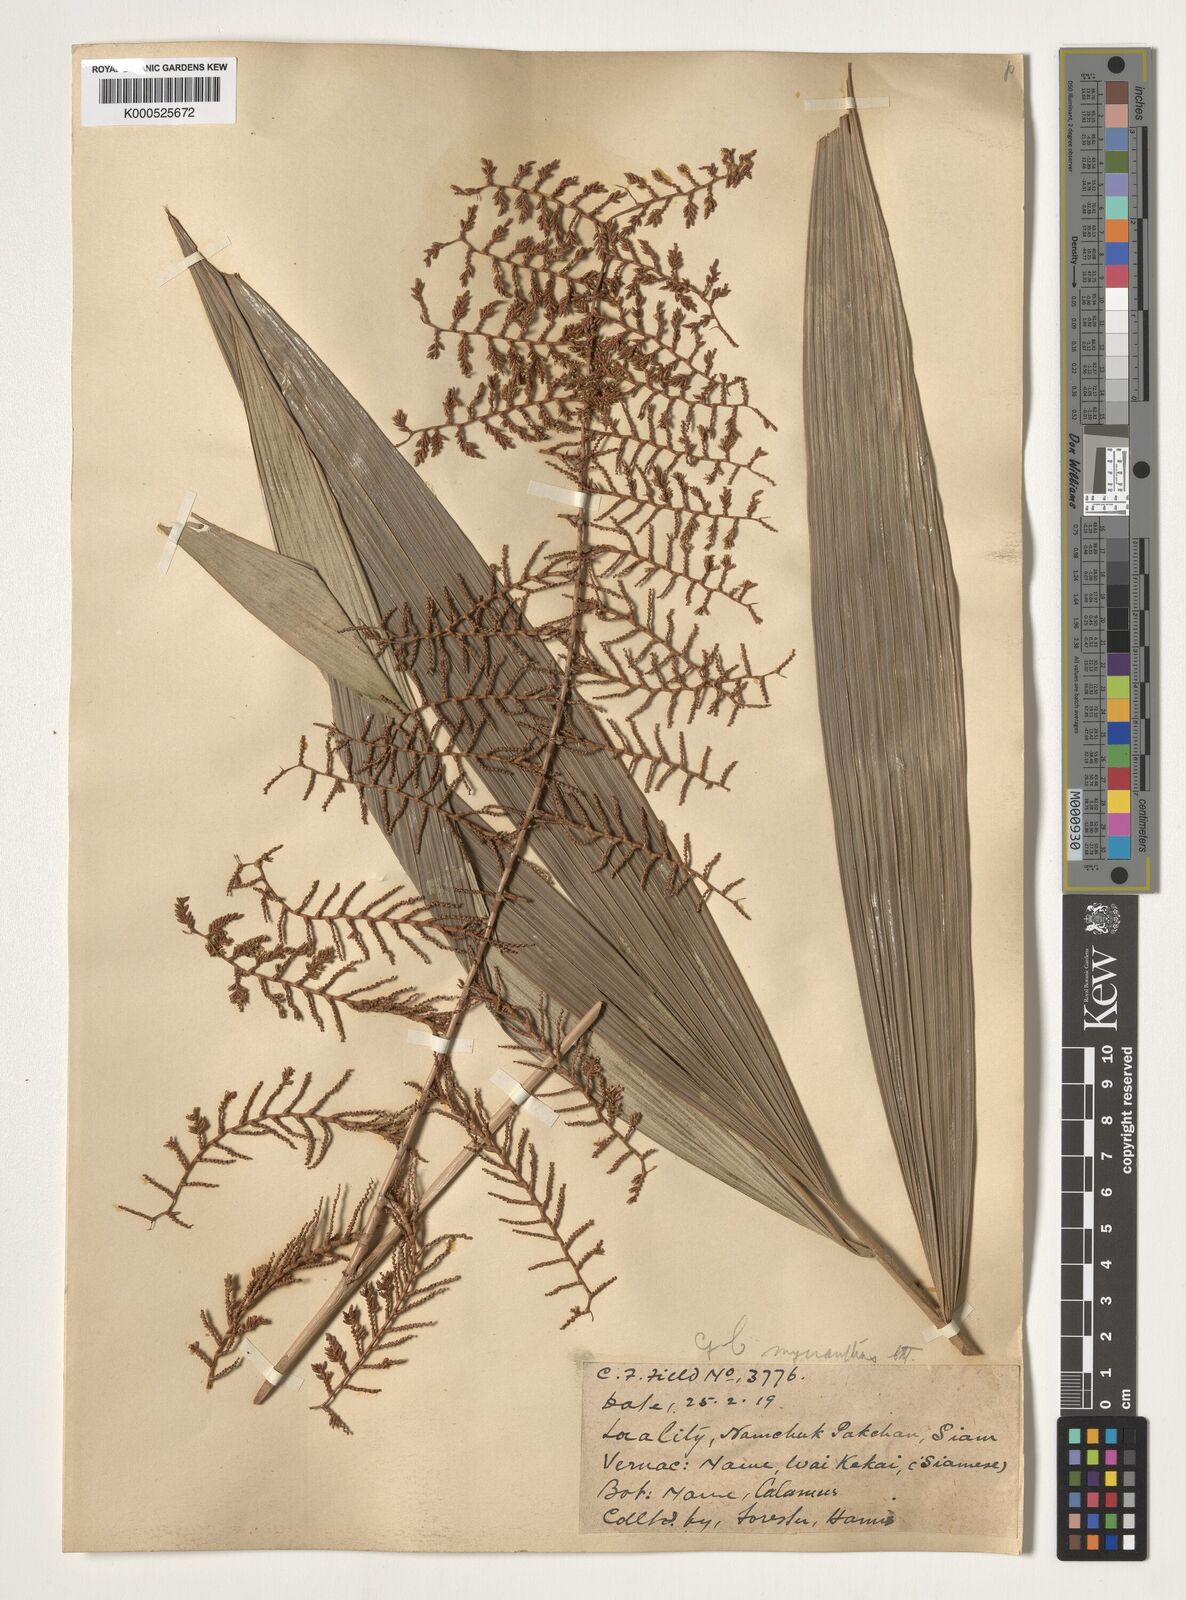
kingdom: Plantae
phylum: Tracheophyta
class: Liliopsida
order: Arecales
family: Arecaceae
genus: Calamus
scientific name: Calamus myrianthus
